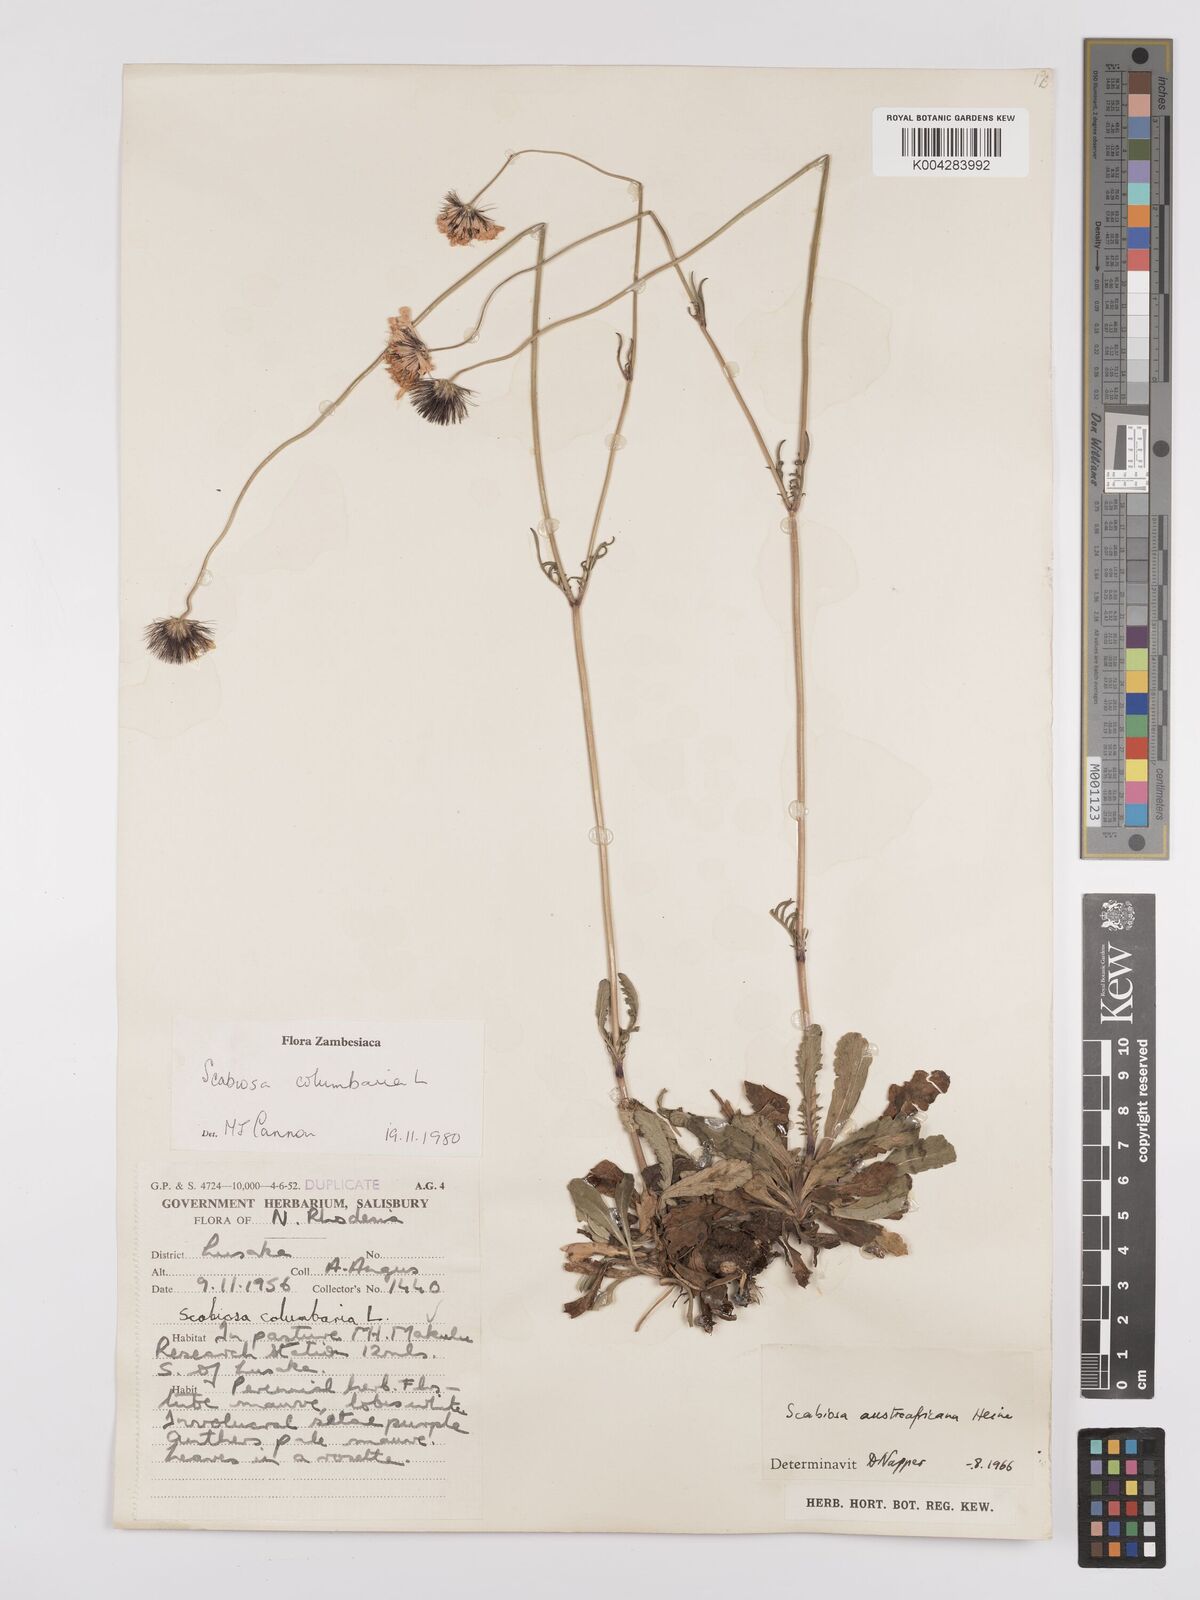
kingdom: Plantae
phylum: Tracheophyta
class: Magnoliopsida
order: Dipsacales
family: Caprifoliaceae
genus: Scabiosa
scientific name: Scabiosa austroafricana
